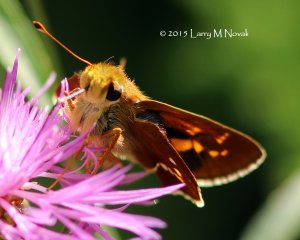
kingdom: Animalia
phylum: Arthropoda
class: Insecta
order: Lepidoptera
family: Hesperiidae
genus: Hesperia
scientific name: Hesperia leonardus
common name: Leonard's Skipper
